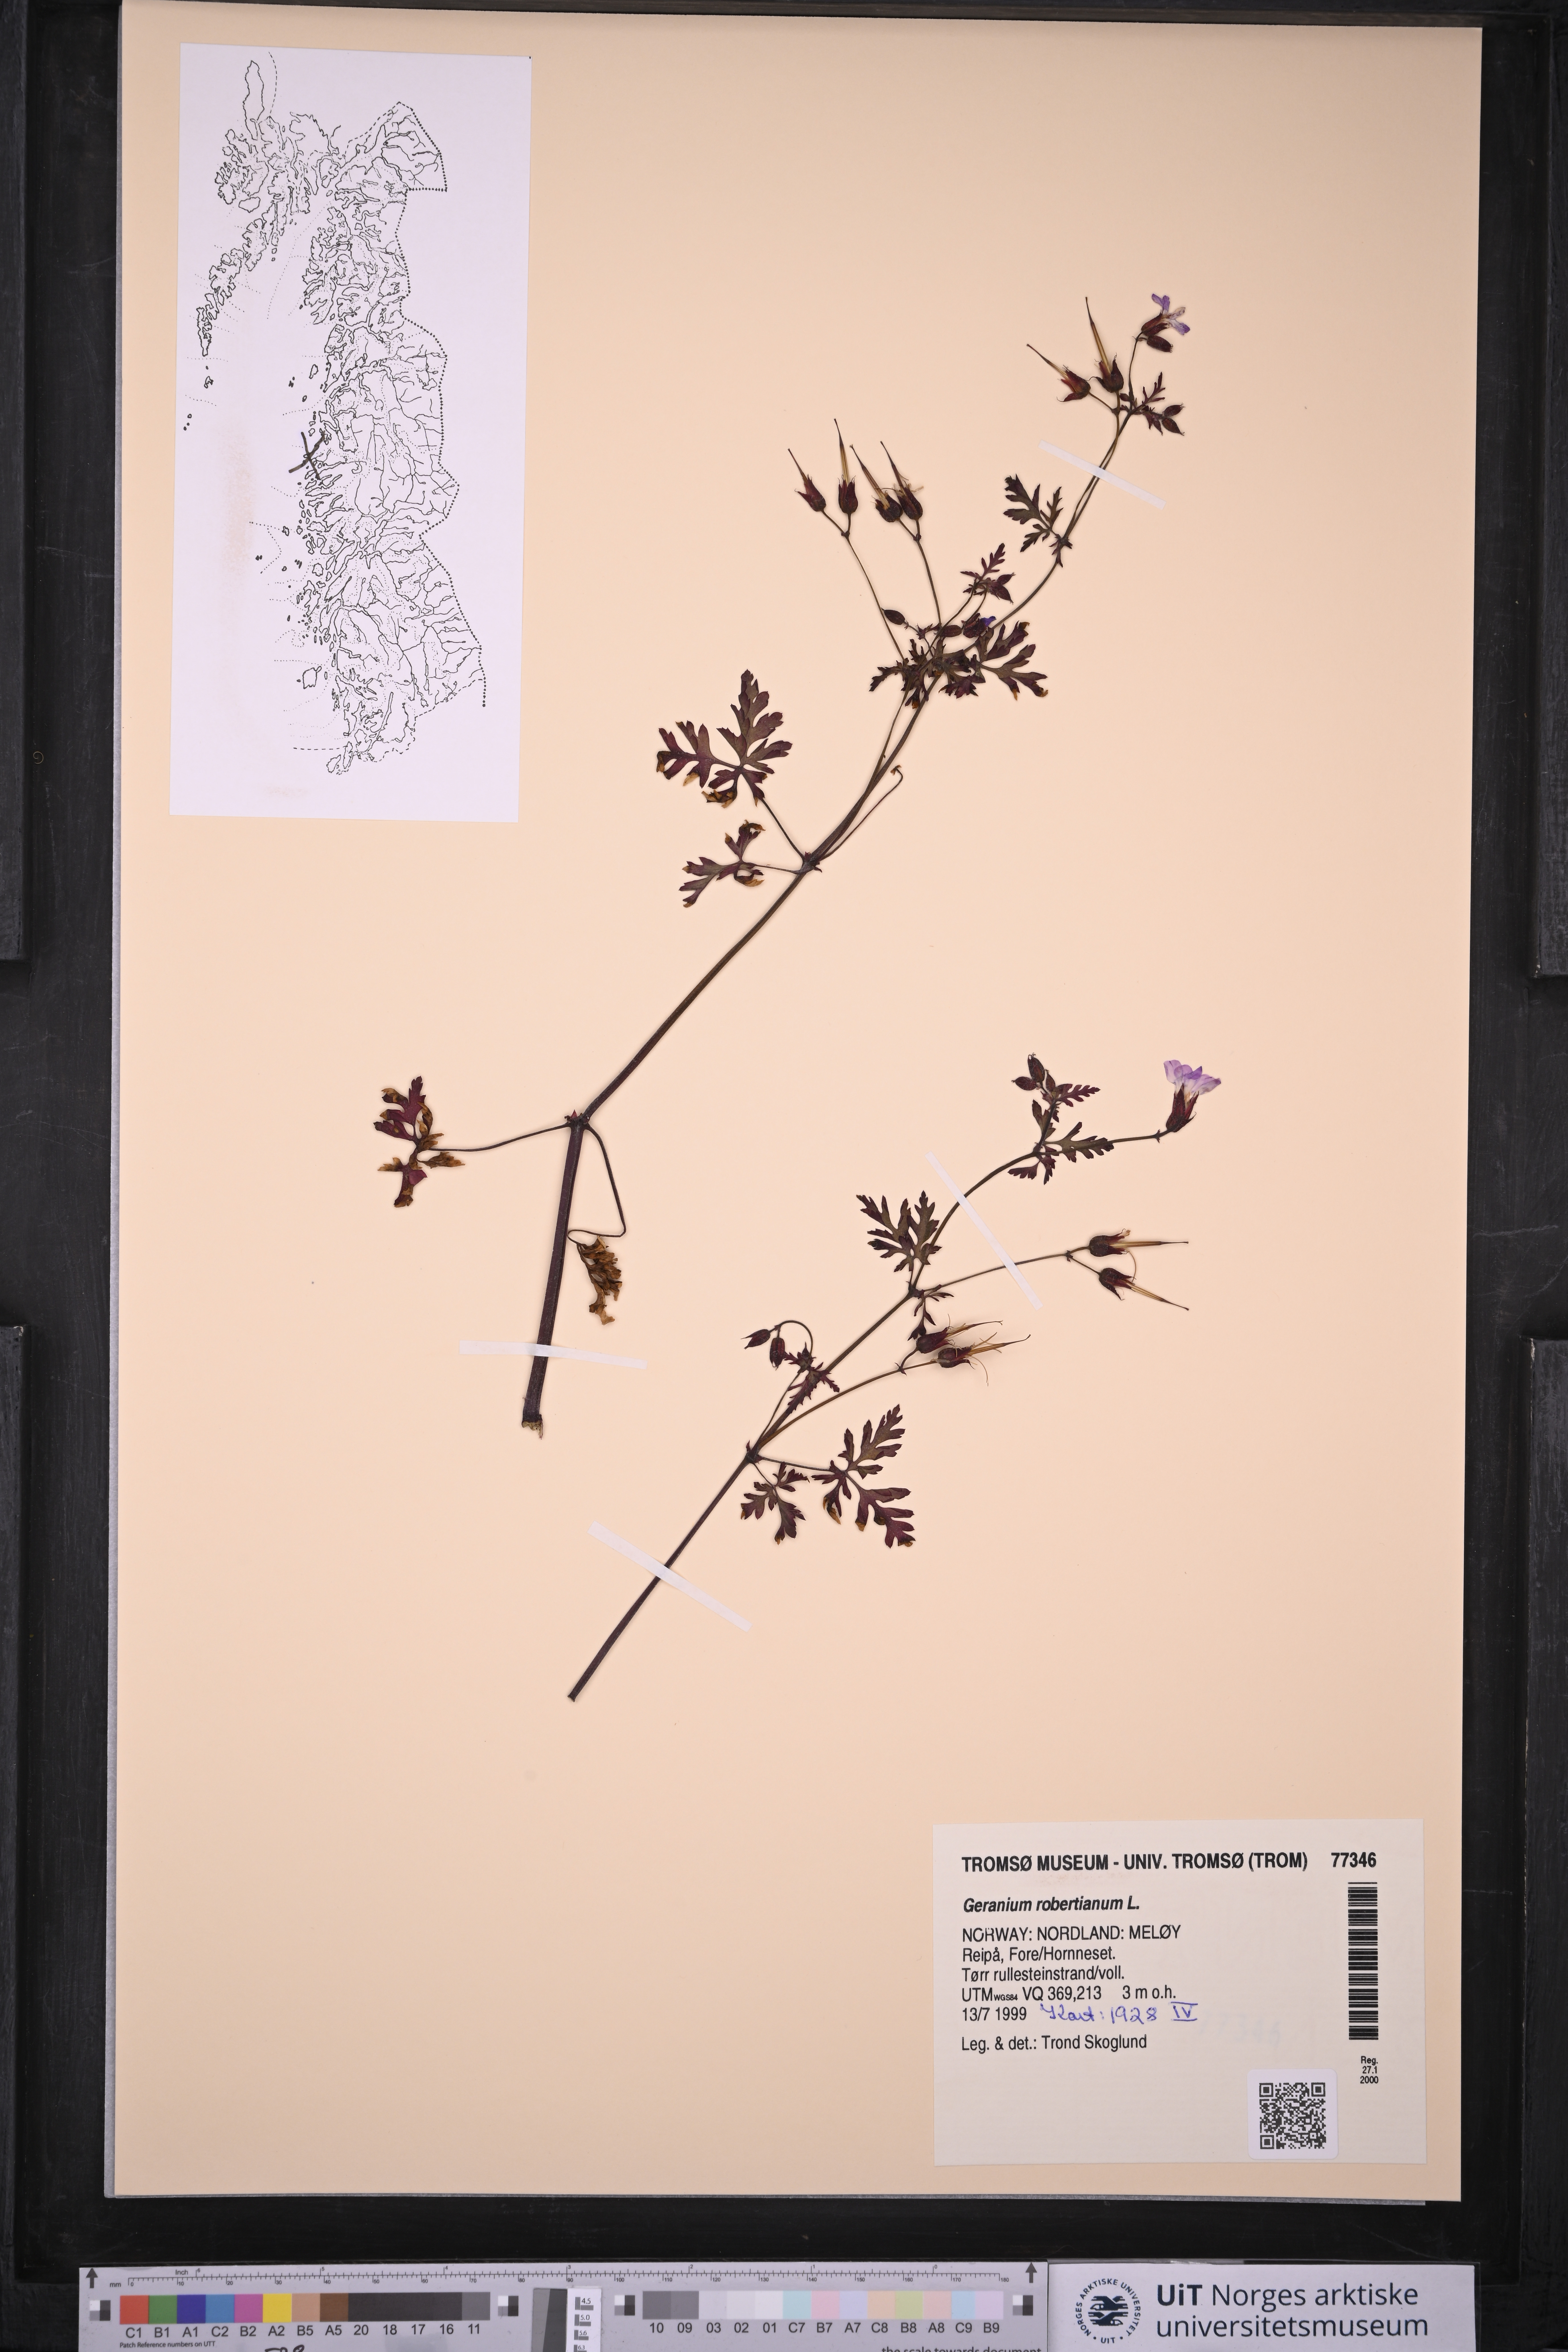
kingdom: Plantae
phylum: Tracheophyta
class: Magnoliopsida
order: Geraniales
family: Geraniaceae
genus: Geranium
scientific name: Geranium robertianum
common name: Herb-robert
